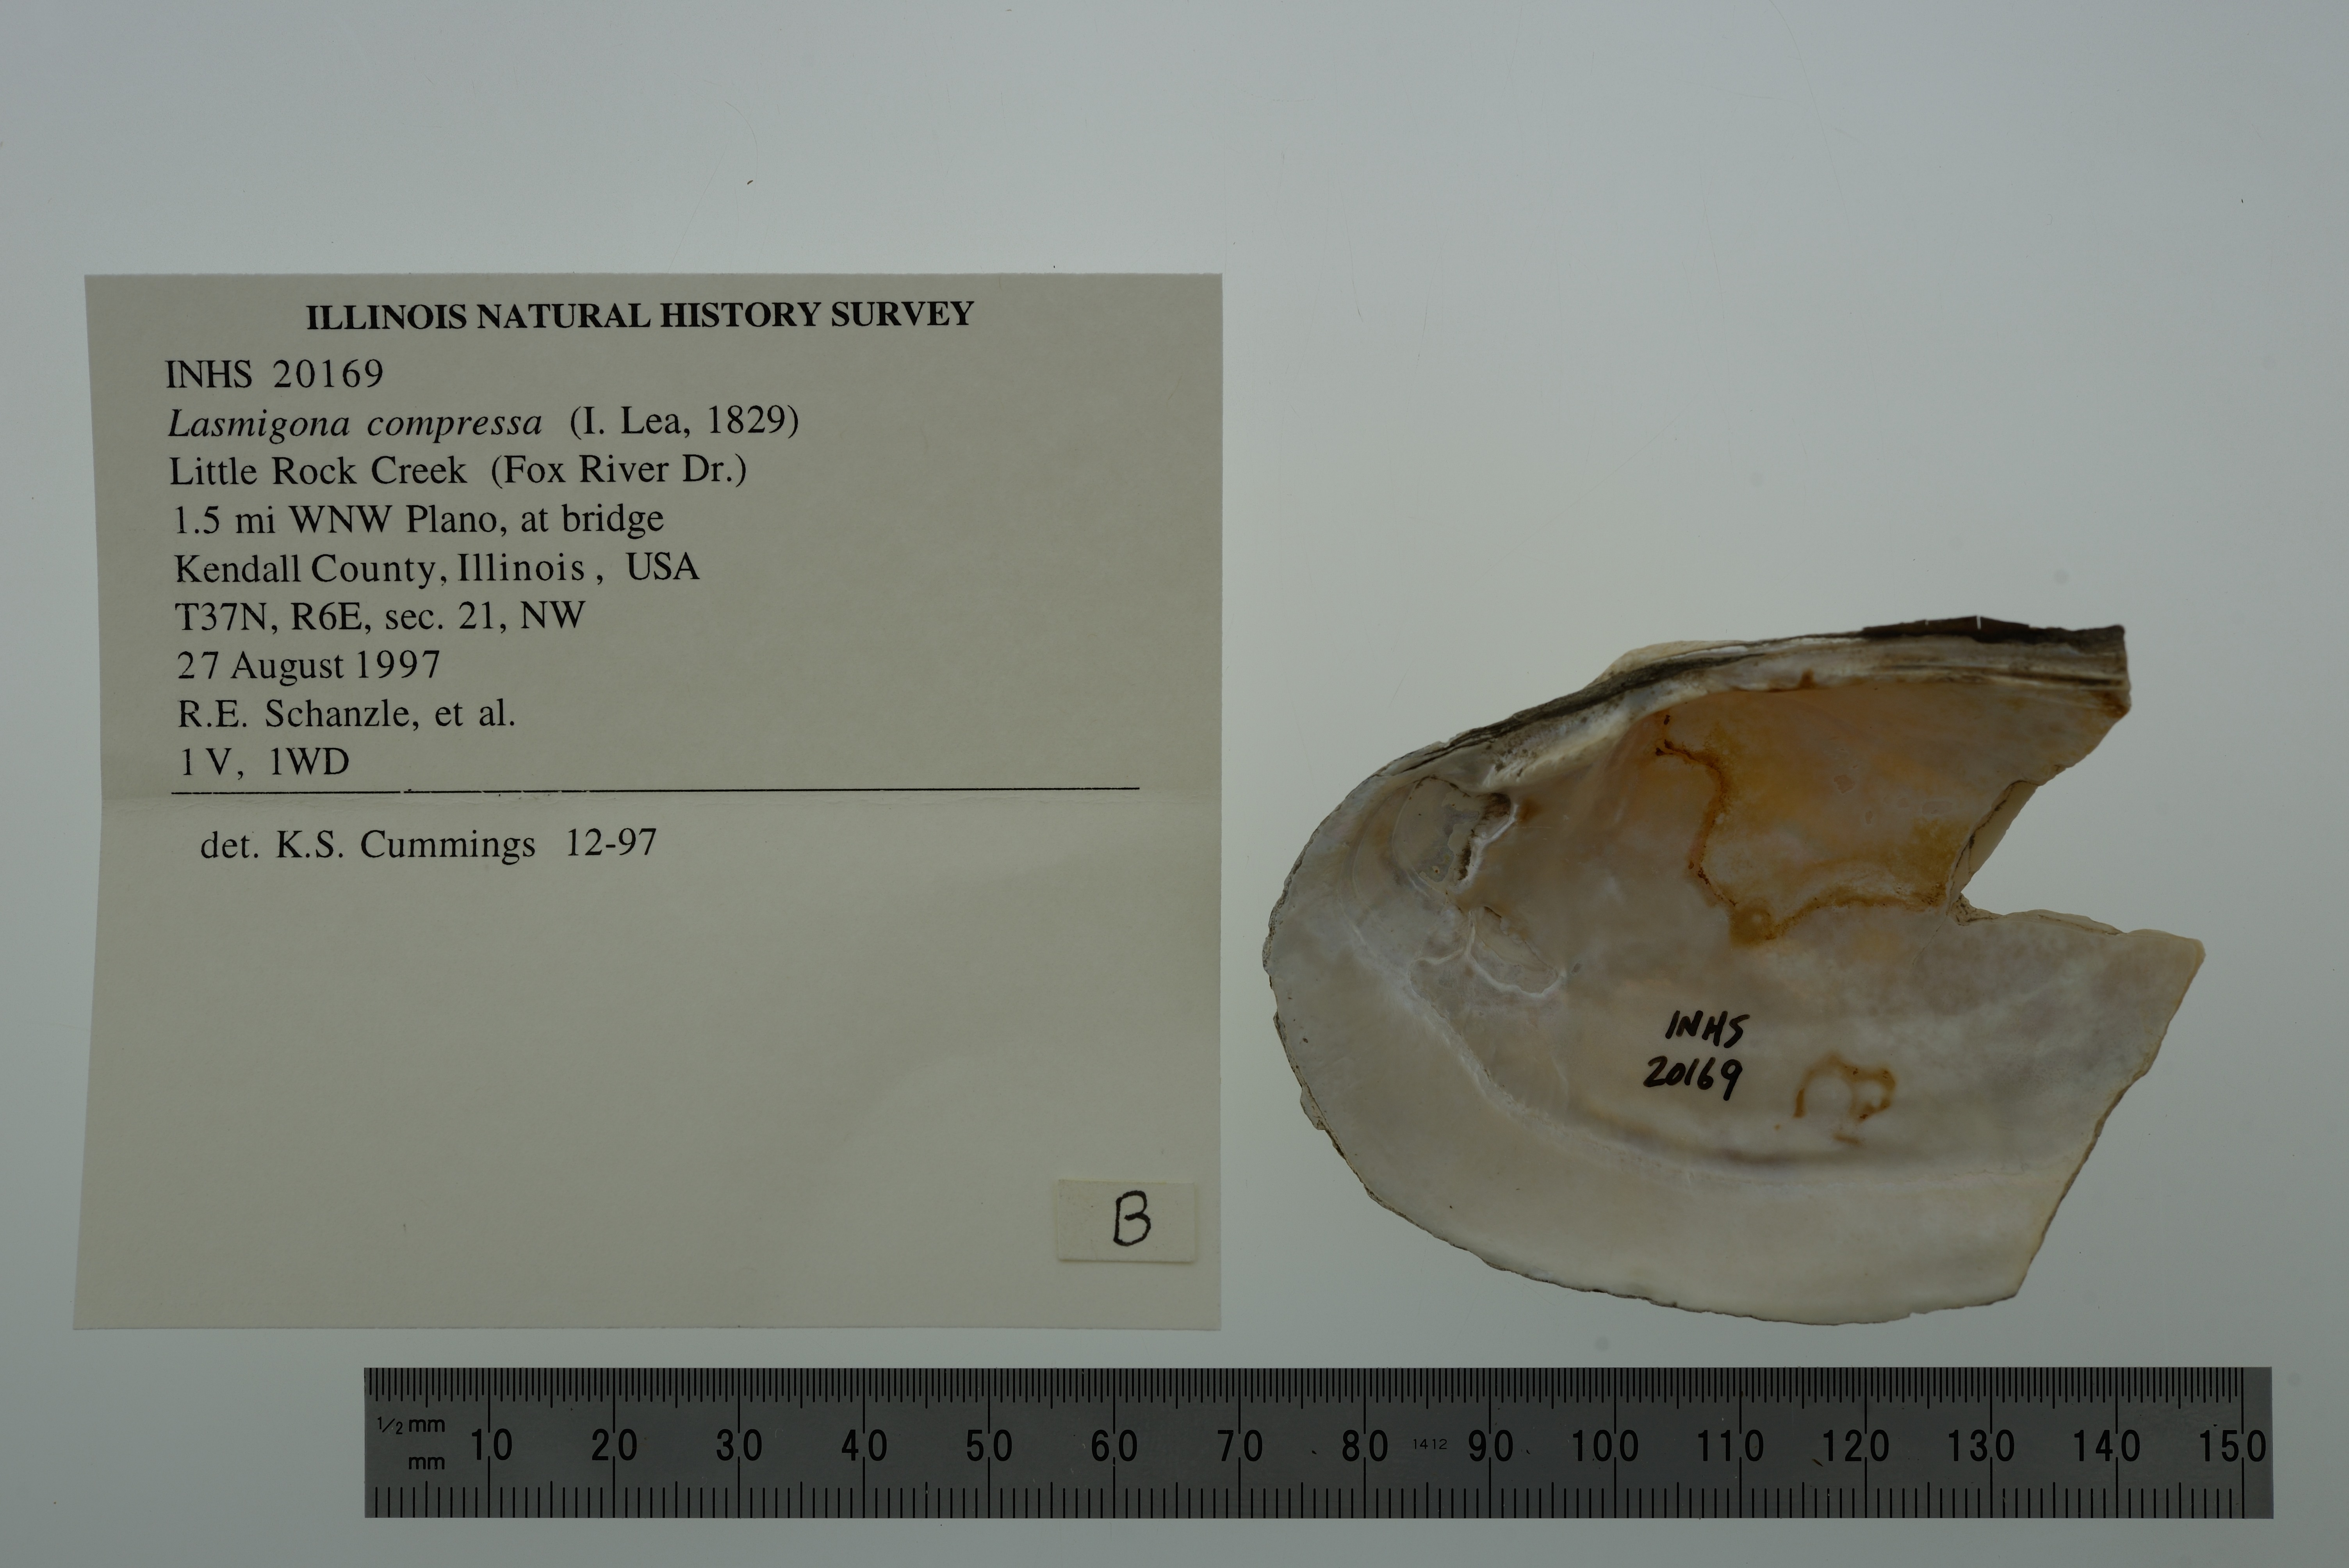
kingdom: Animalia
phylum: Mollusca
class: Bivalvia
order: Unionida
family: Unionidae
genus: Lasmigona
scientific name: Lasmigona compressa
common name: Creek heelsplitter
